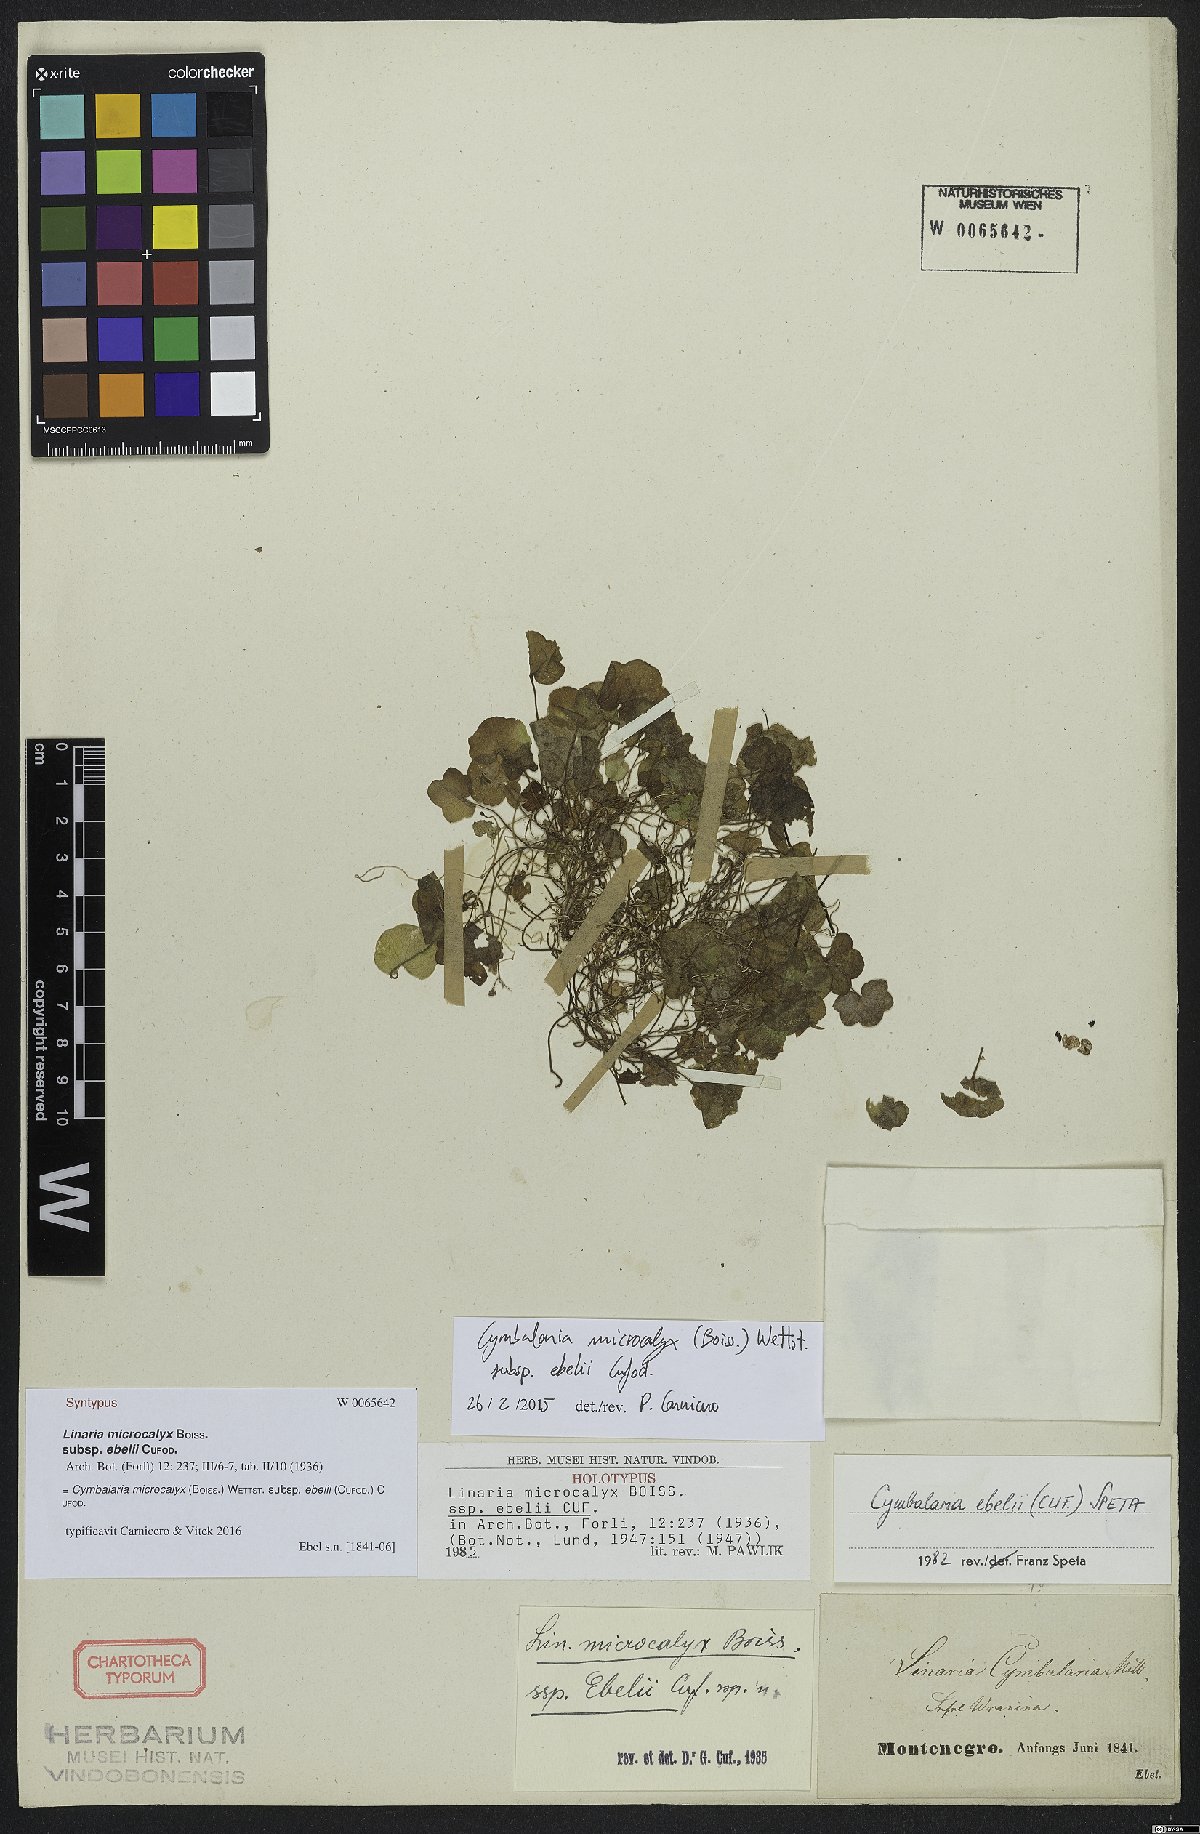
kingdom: Plantae
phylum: Tracheophyta
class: Magnoliopsida
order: Lamiales
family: Plantaginaceae
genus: Cymbalaria
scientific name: Cymbalaria ebelii
